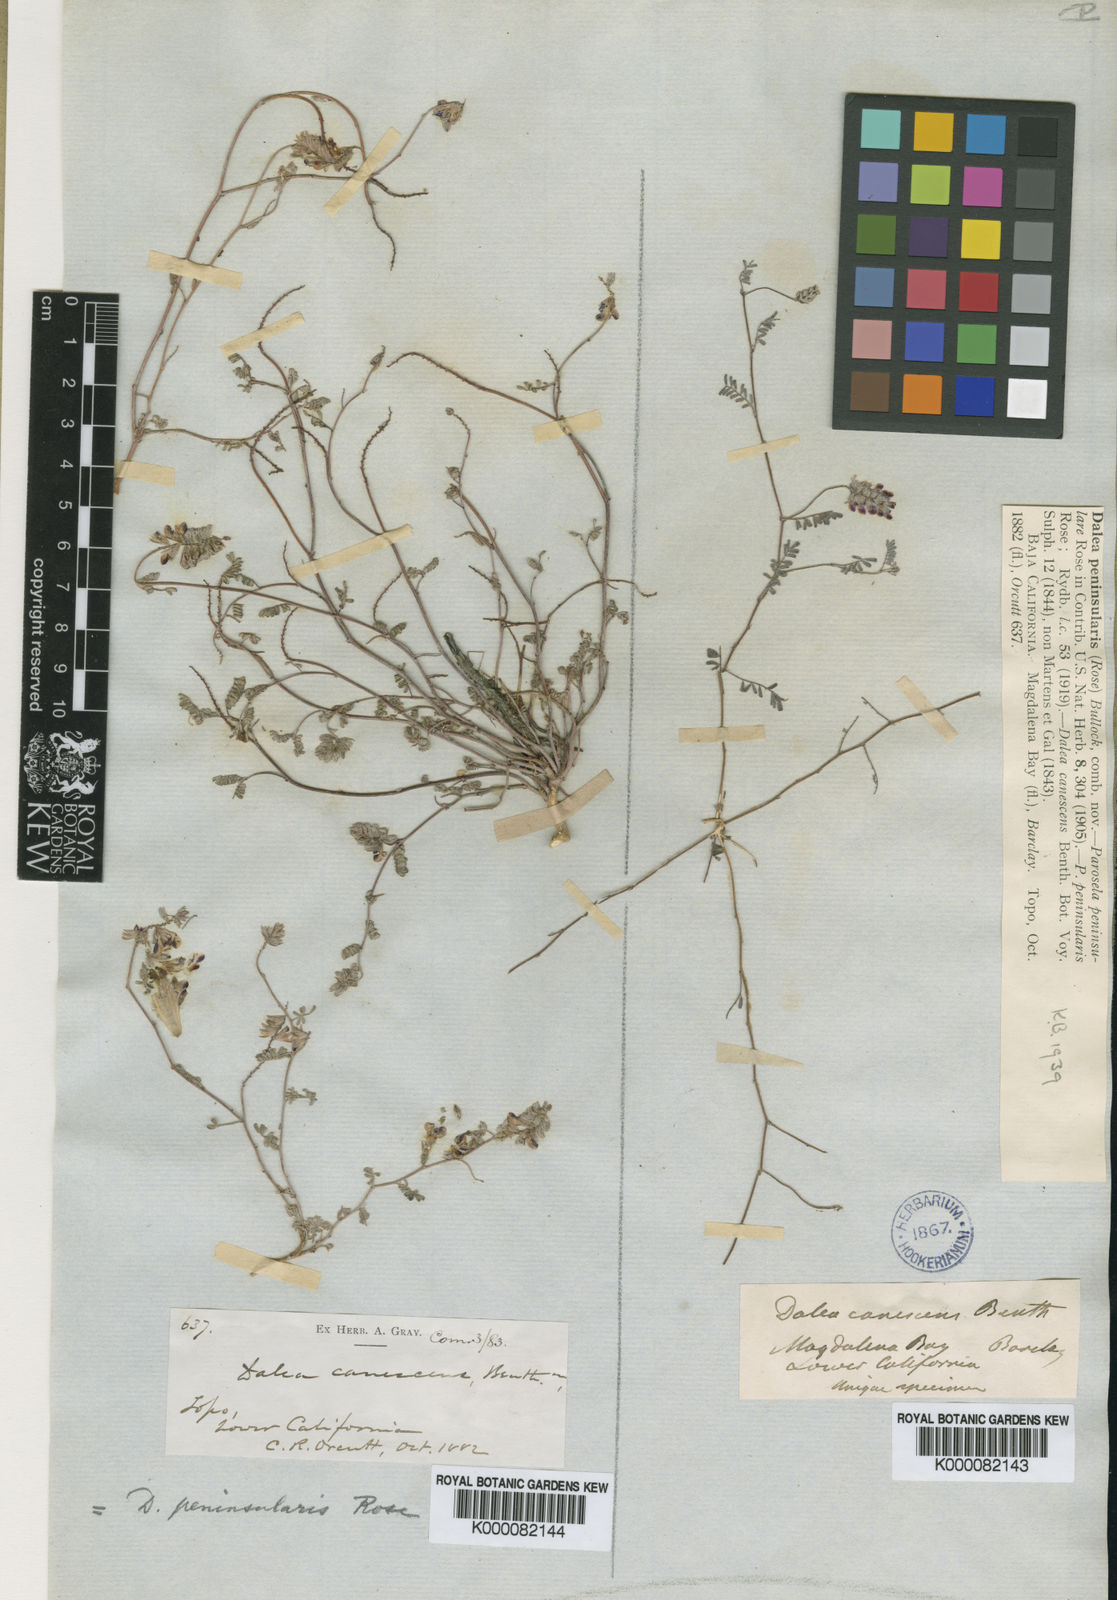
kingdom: Plantae
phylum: Tracheophyta
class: Magnoliopsida
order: Fabales
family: Fabaceae
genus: Marina
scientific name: Marina peninsularis
